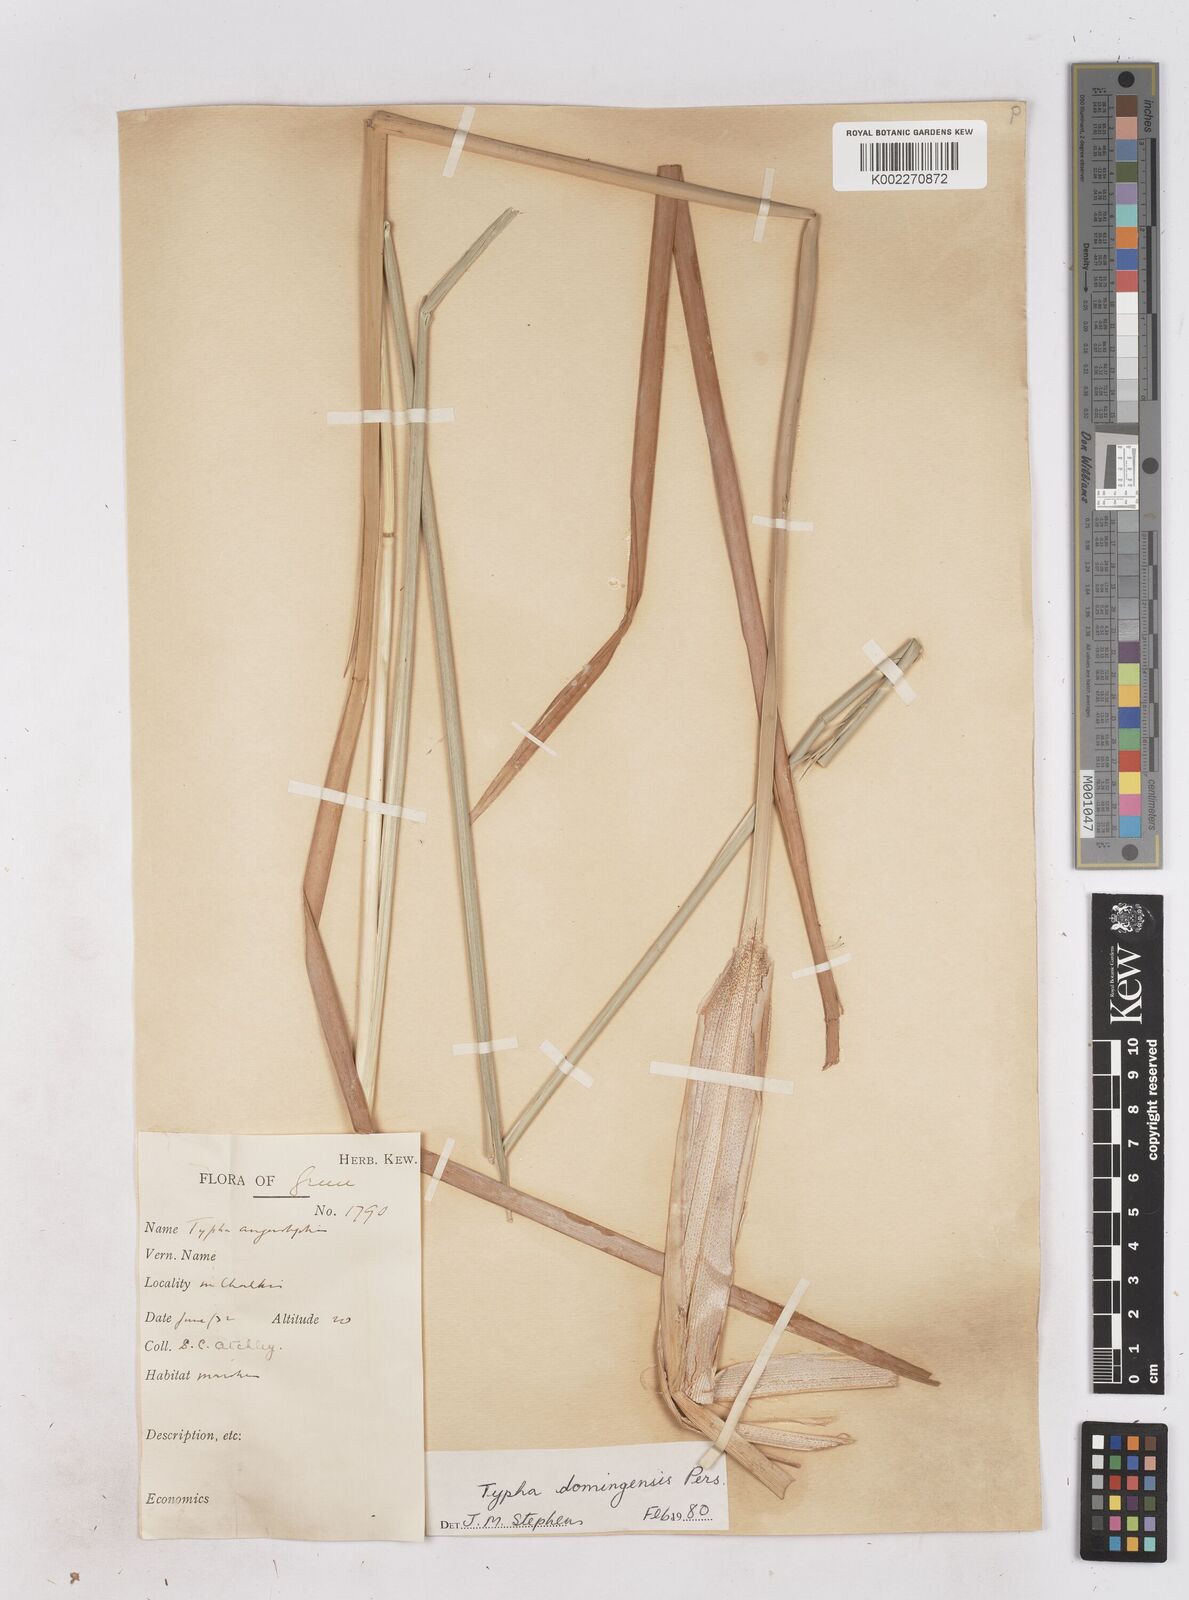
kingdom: Plantae
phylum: Tracheophyta
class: Liliopsida
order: Poales
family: Typhaceae
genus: Typha
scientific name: Typha domingensis
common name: Southern cattail
